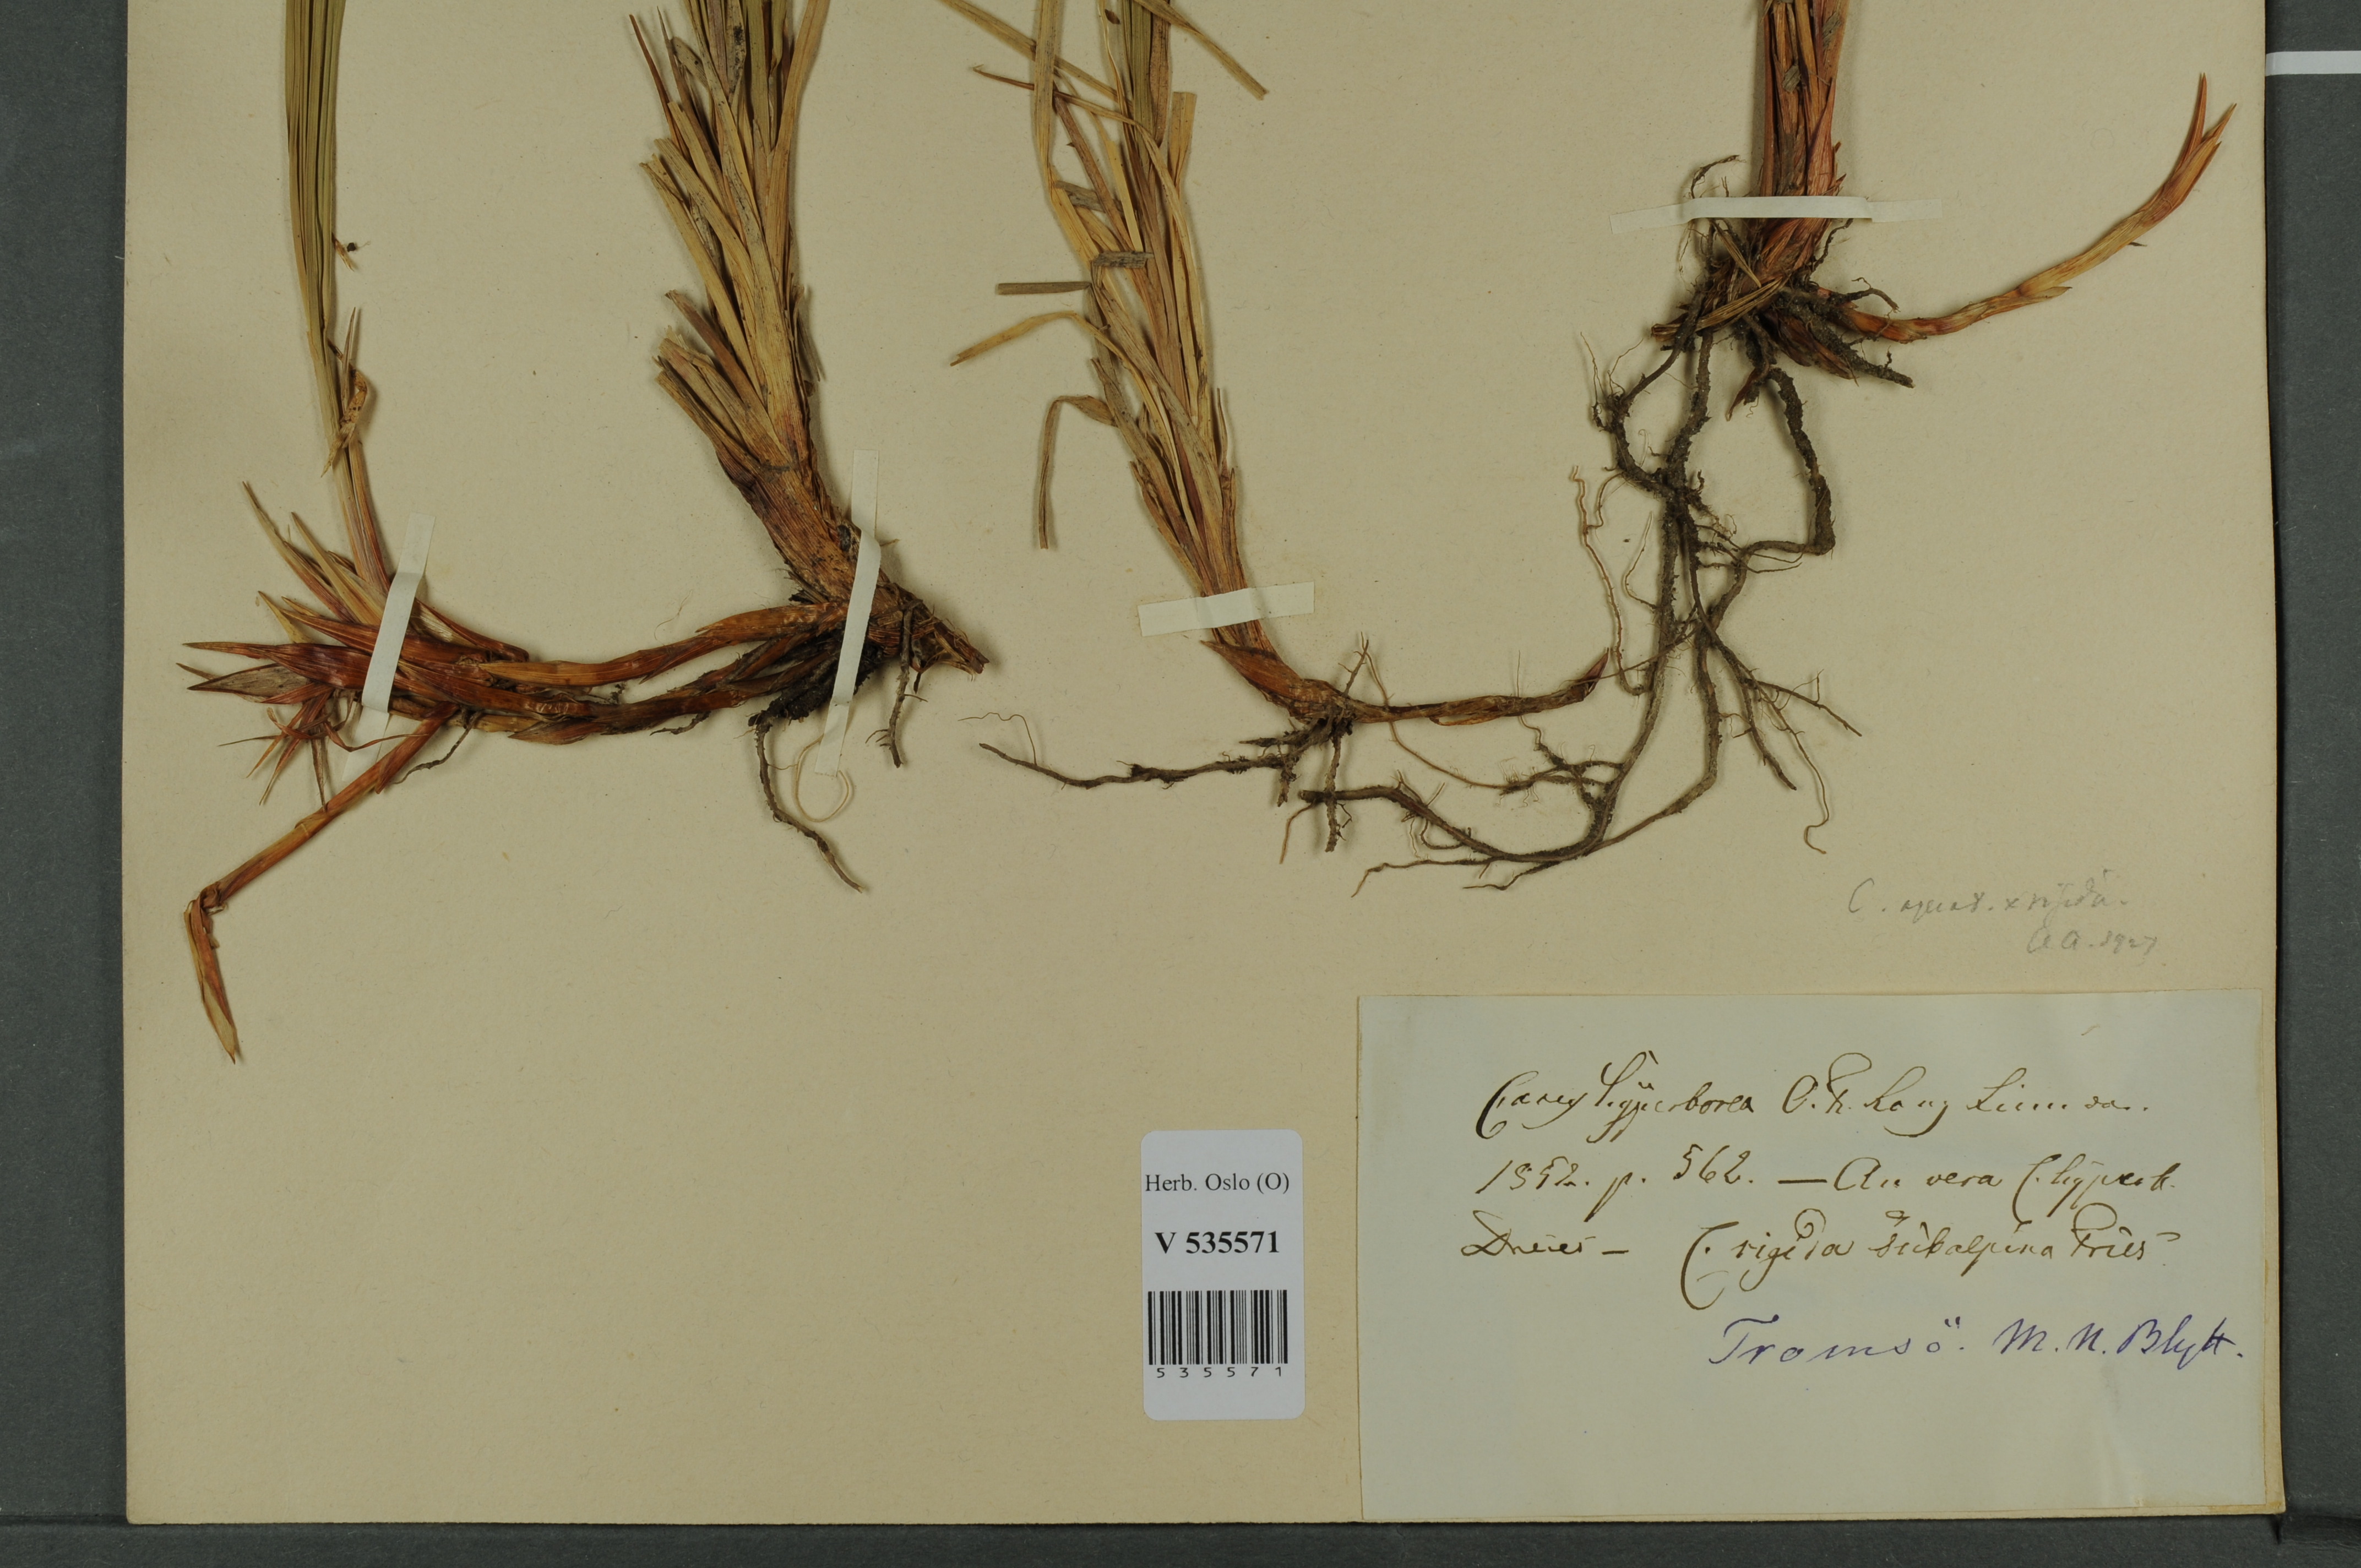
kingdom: Plantae
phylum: Tracheophyta
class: Liliopsida
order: Poales
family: Cyperaceae
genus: Carex
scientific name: Carex
